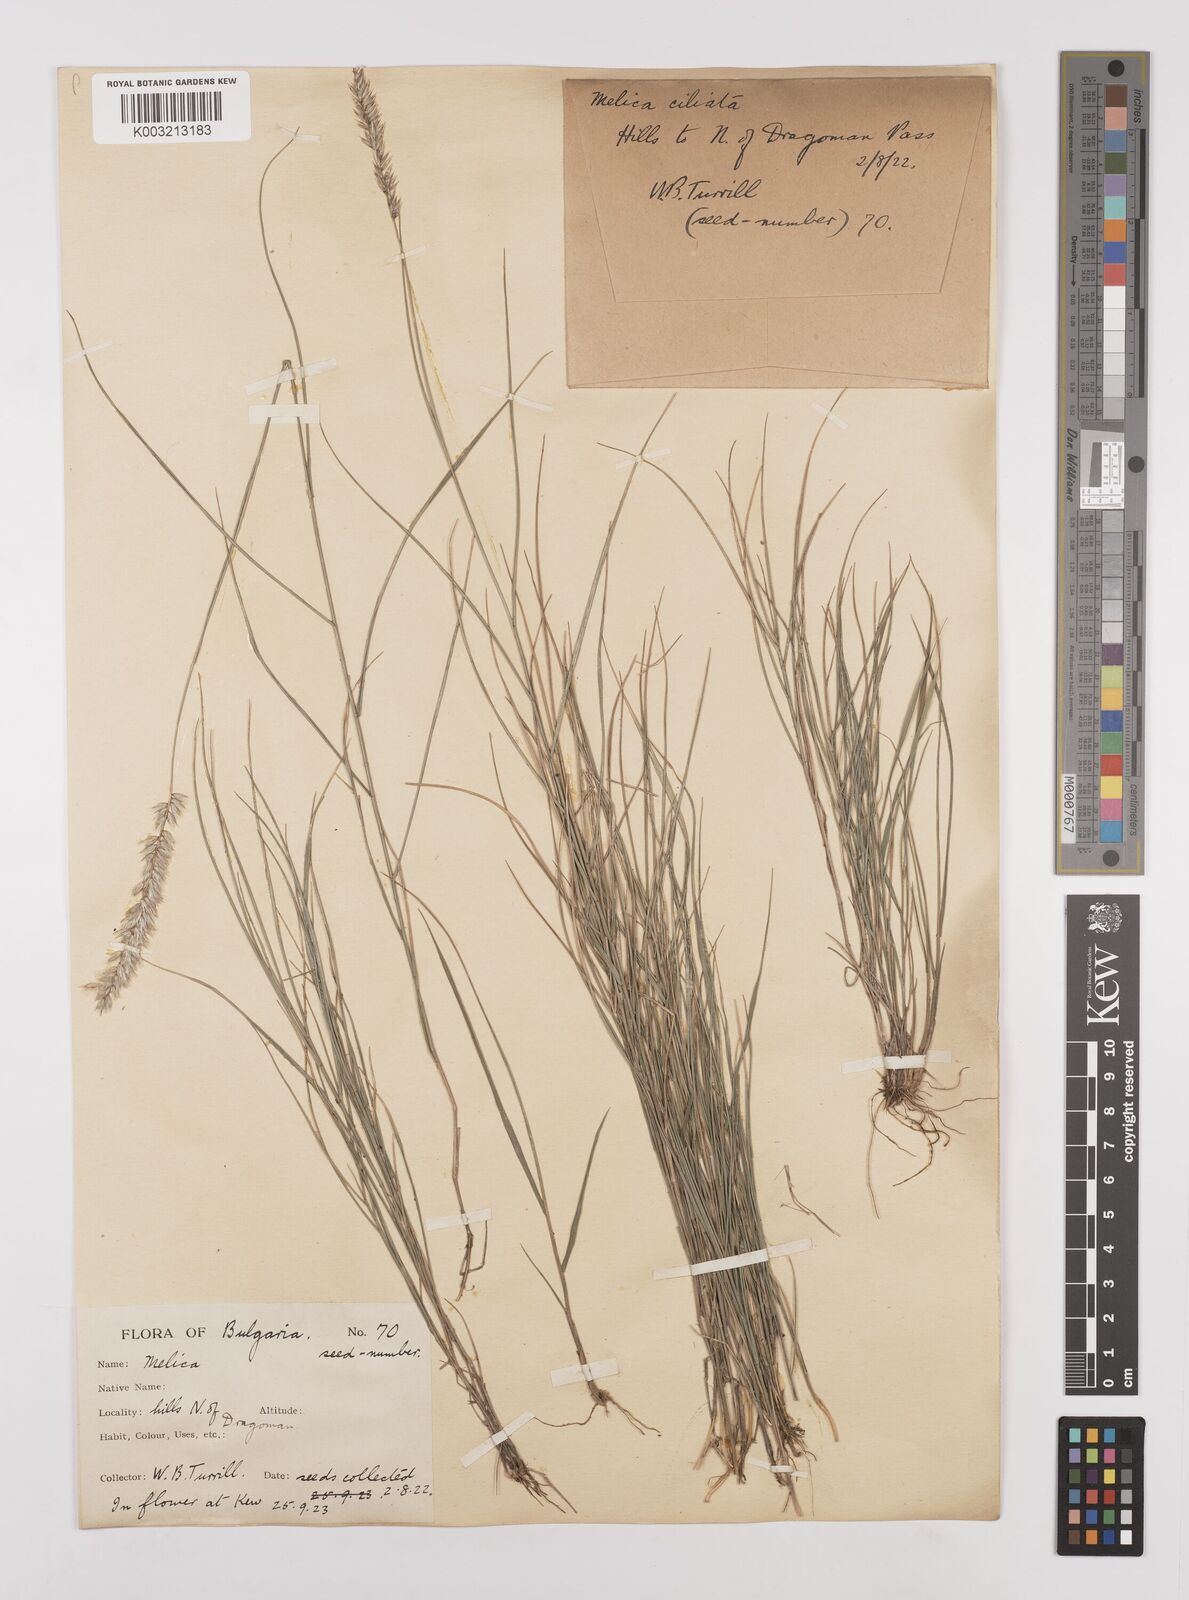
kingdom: Plantae
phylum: Tracheophyta
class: Liliopsida
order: Poales
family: Poaceae
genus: Melica
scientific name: Melica ciliata
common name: Hairy melicgrass
